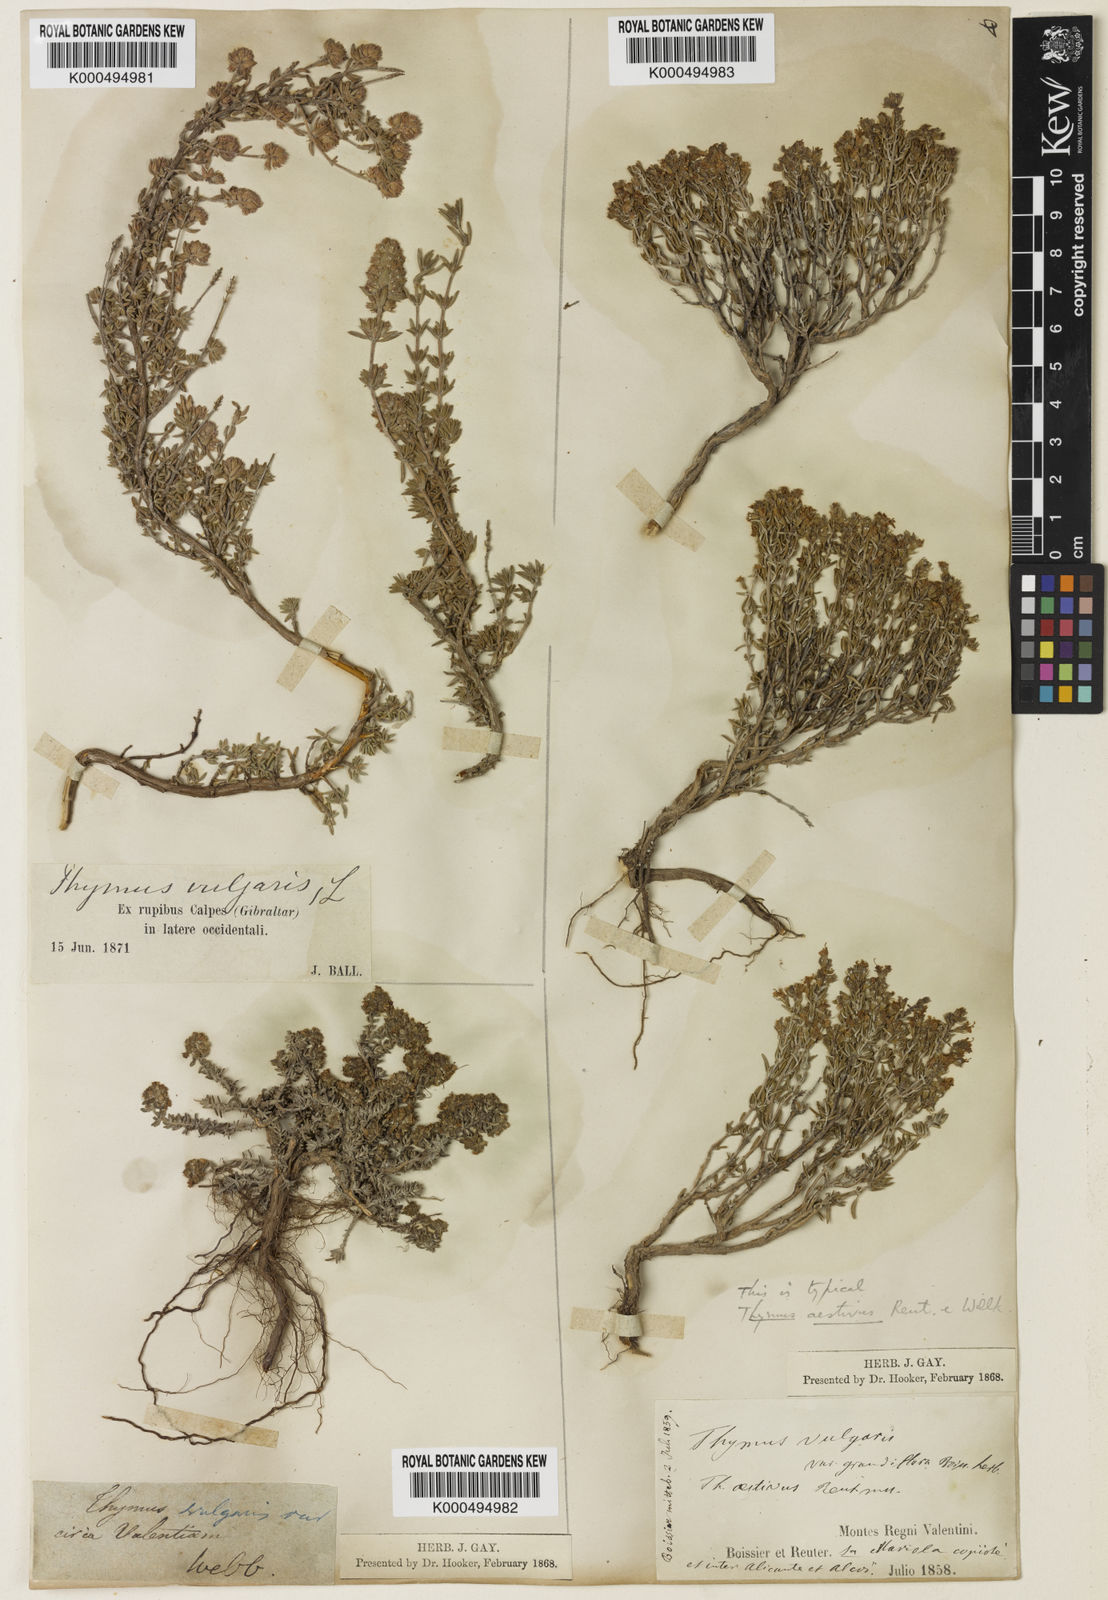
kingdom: Plantae
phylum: Tracheophyta
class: Magnoliopsida
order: Lamiales
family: Lamiaceae
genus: Thymus
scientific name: Thymus vulgaris
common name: Garden thyme
